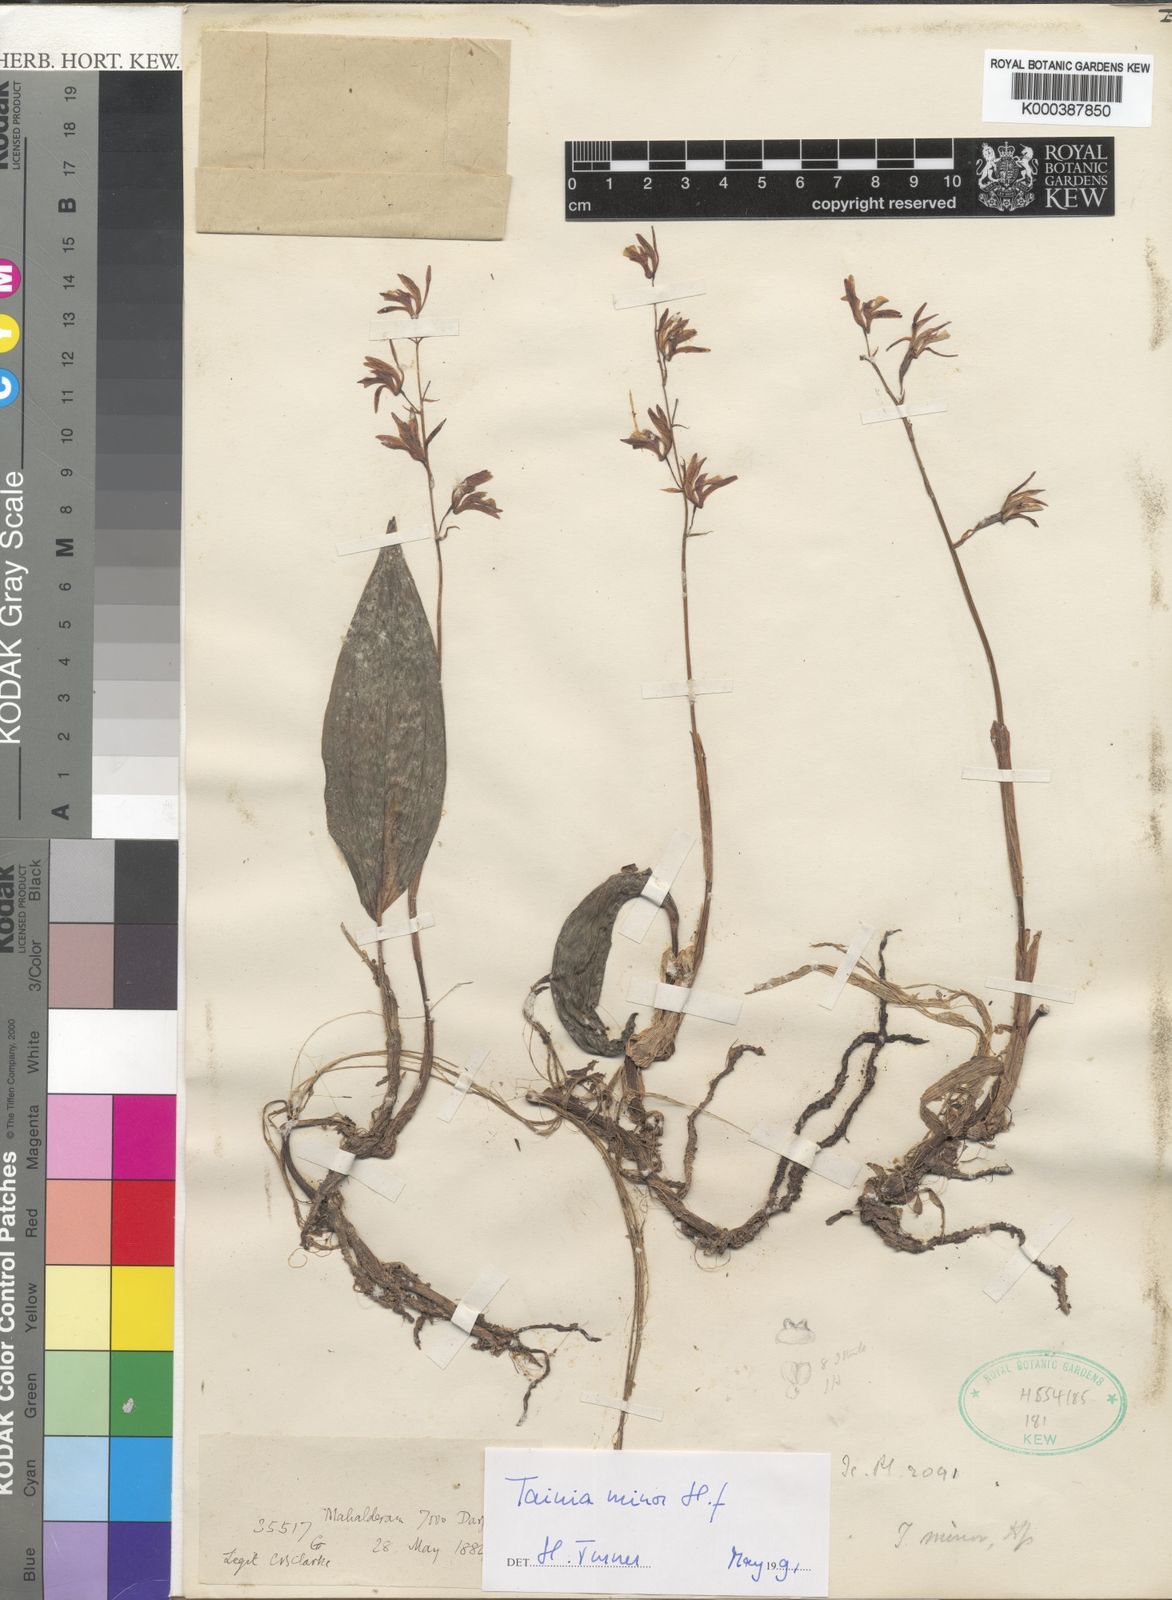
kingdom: Plantae
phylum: Tracheophyta
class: Liliopsida
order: Asparagales
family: Orchidaceae
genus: Tainia
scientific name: Tainia minor
